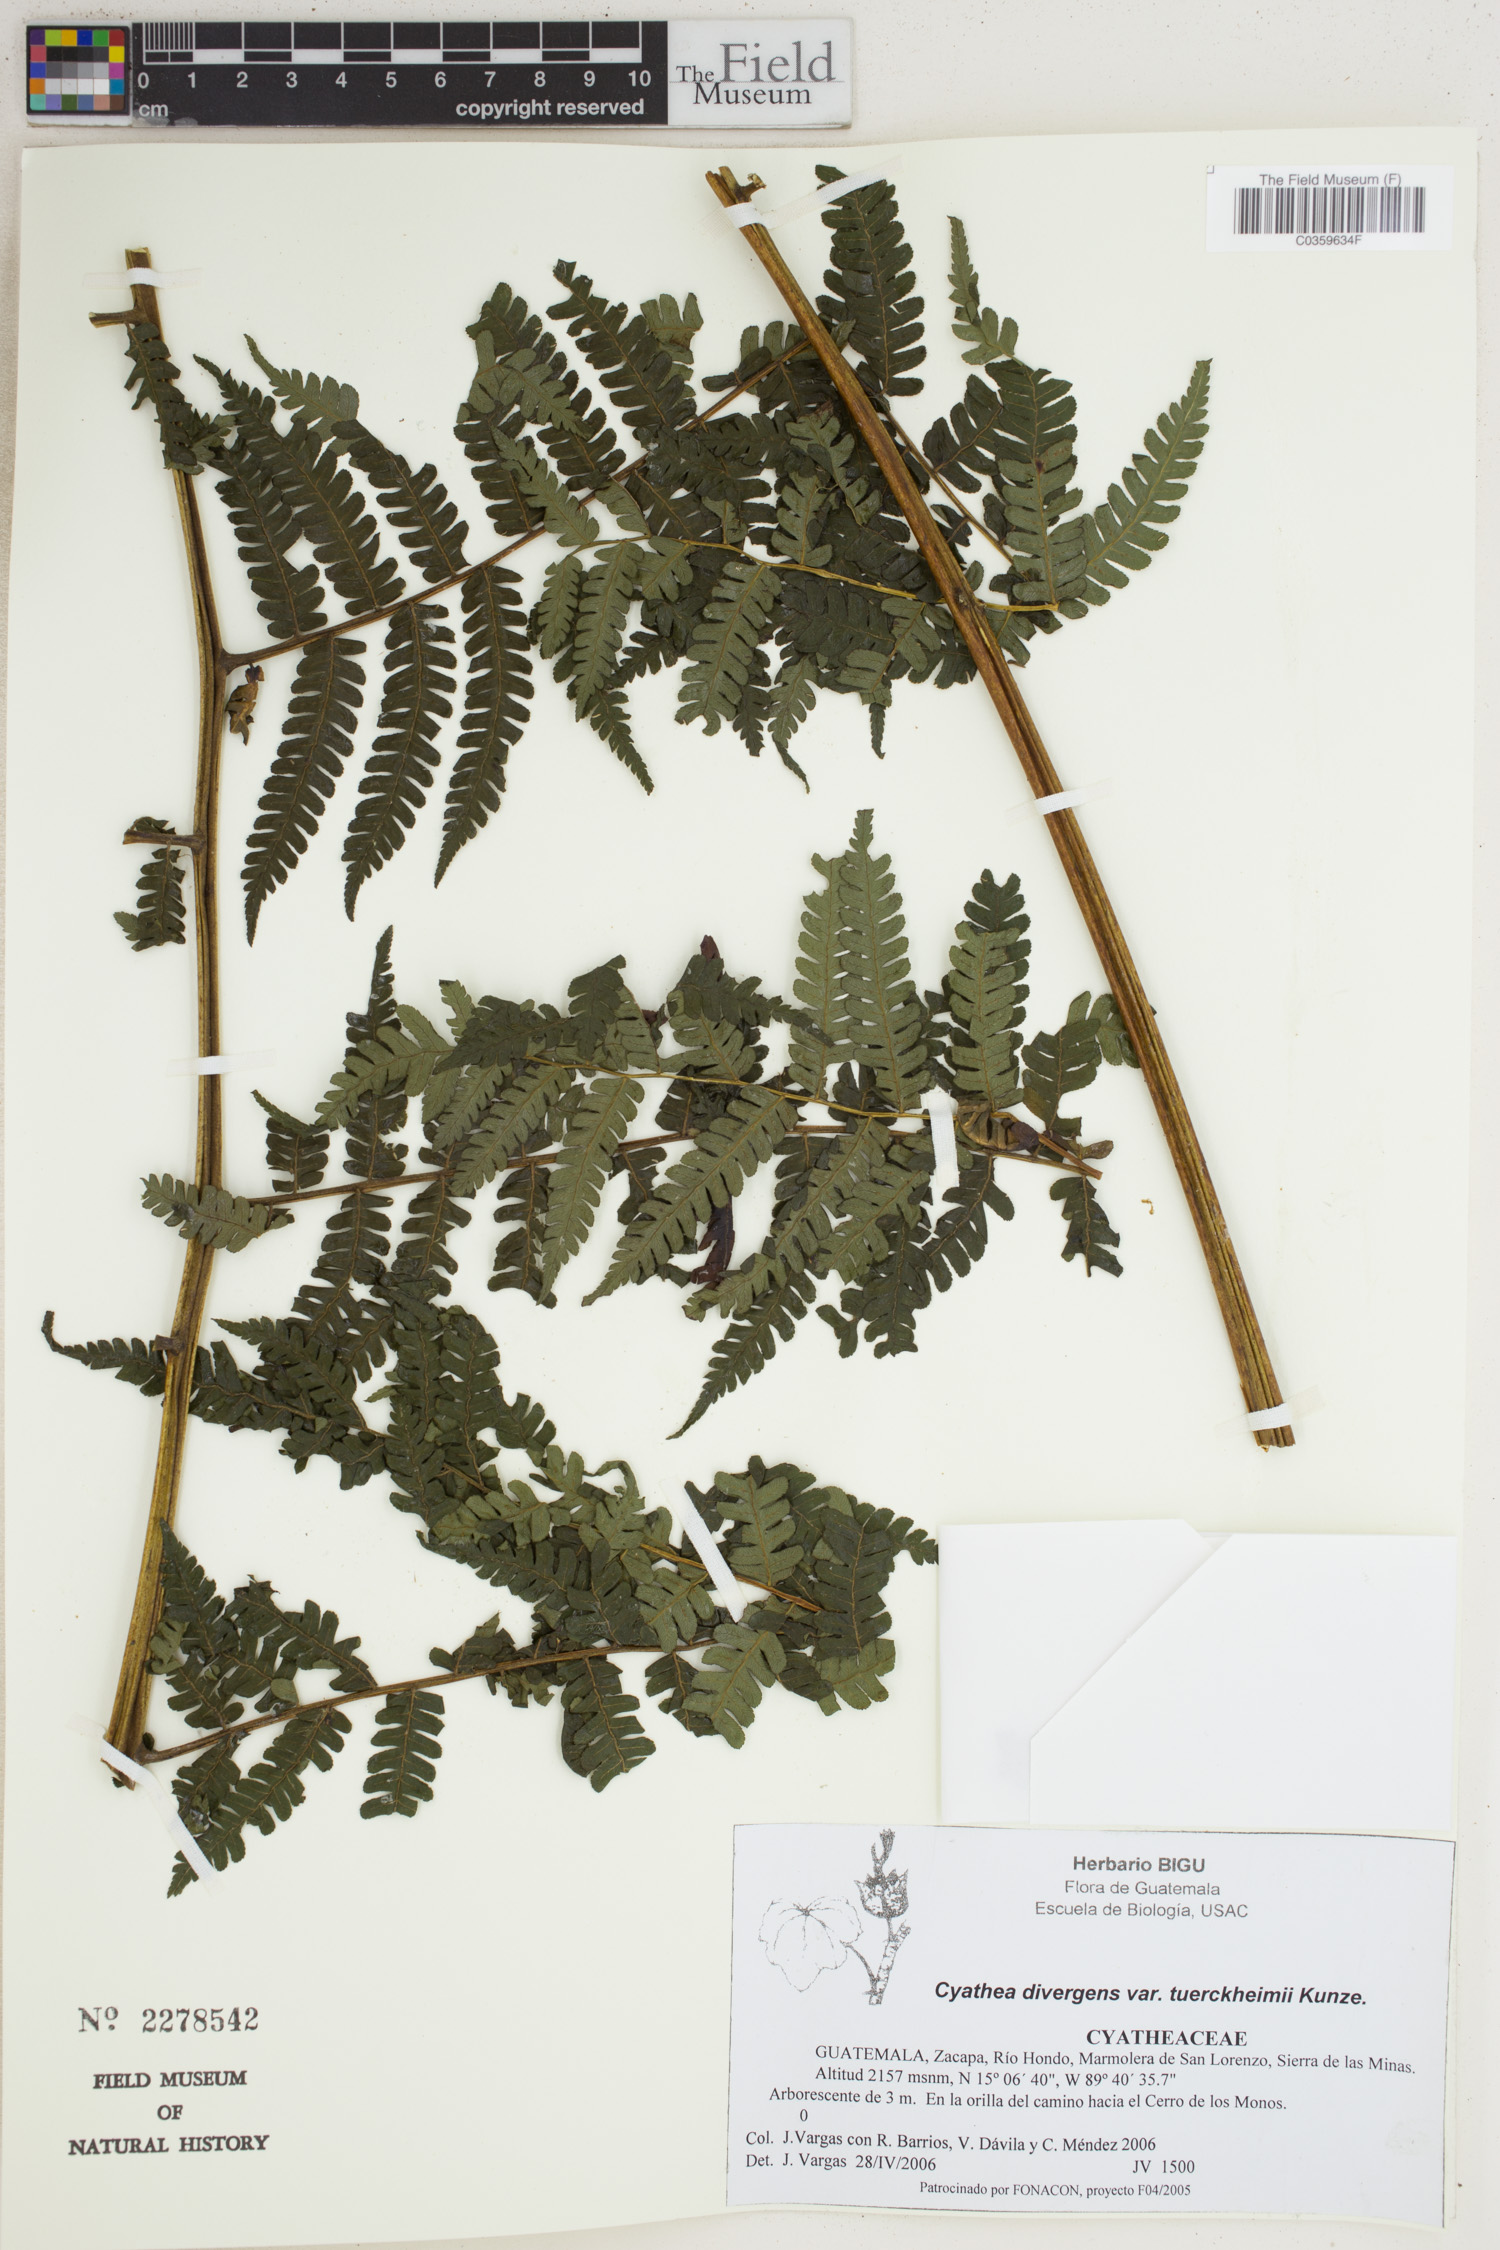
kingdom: Plantae
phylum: Tracheophyta
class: Polypodiopsida
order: Cyatheales
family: Cyatheaceae
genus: Cyathea
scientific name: Cyathea tuerckheimii
